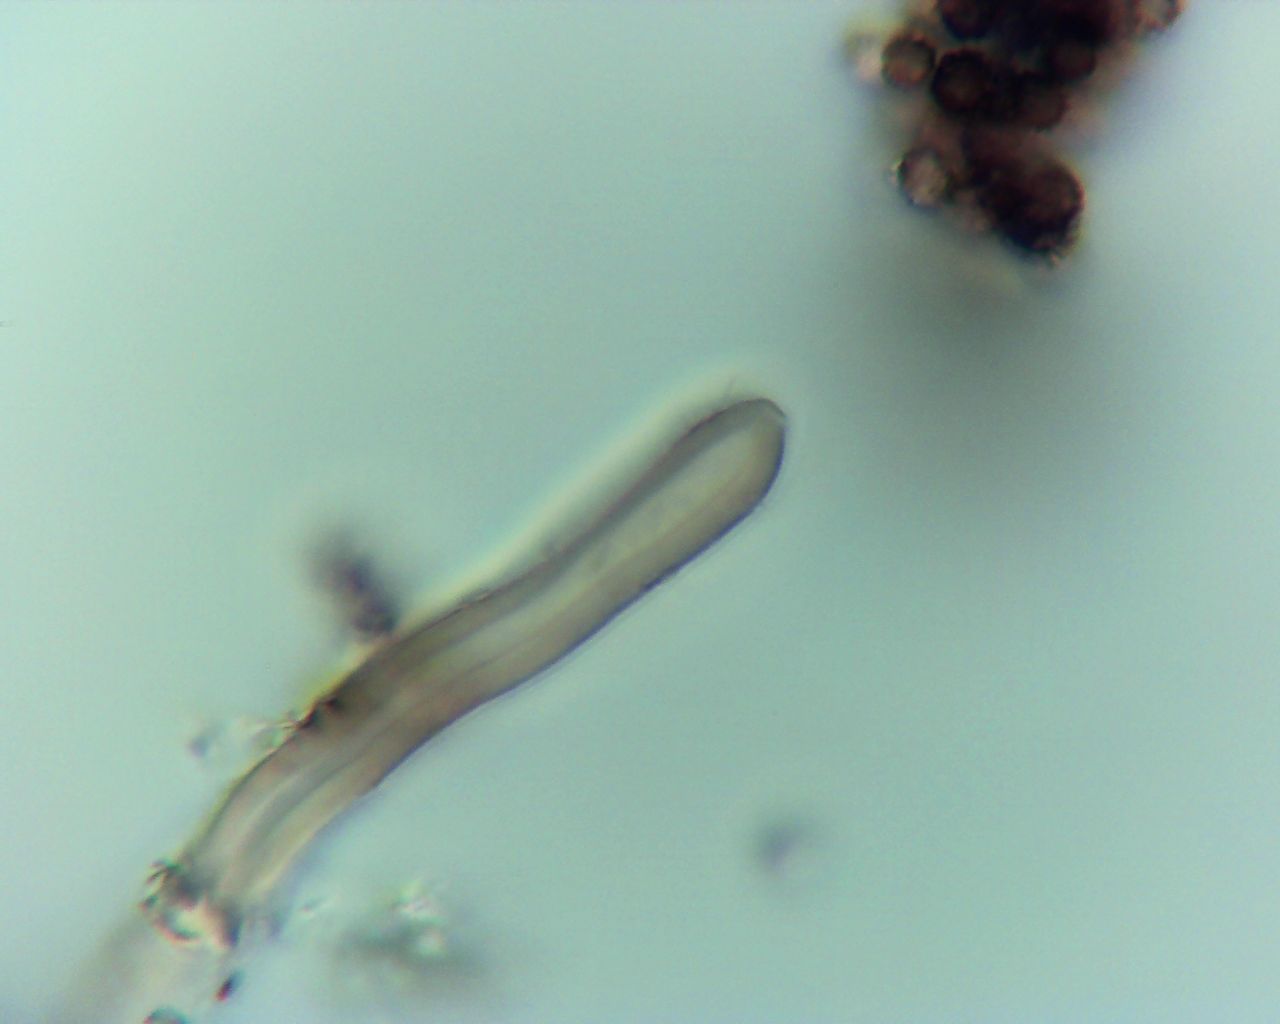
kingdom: Fungi
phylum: Basidiomycota
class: Agaricomycetes
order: Geastrales
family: Geastraceae
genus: Geastrum
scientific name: Geastrum michelianum
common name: kødet stjernebold
